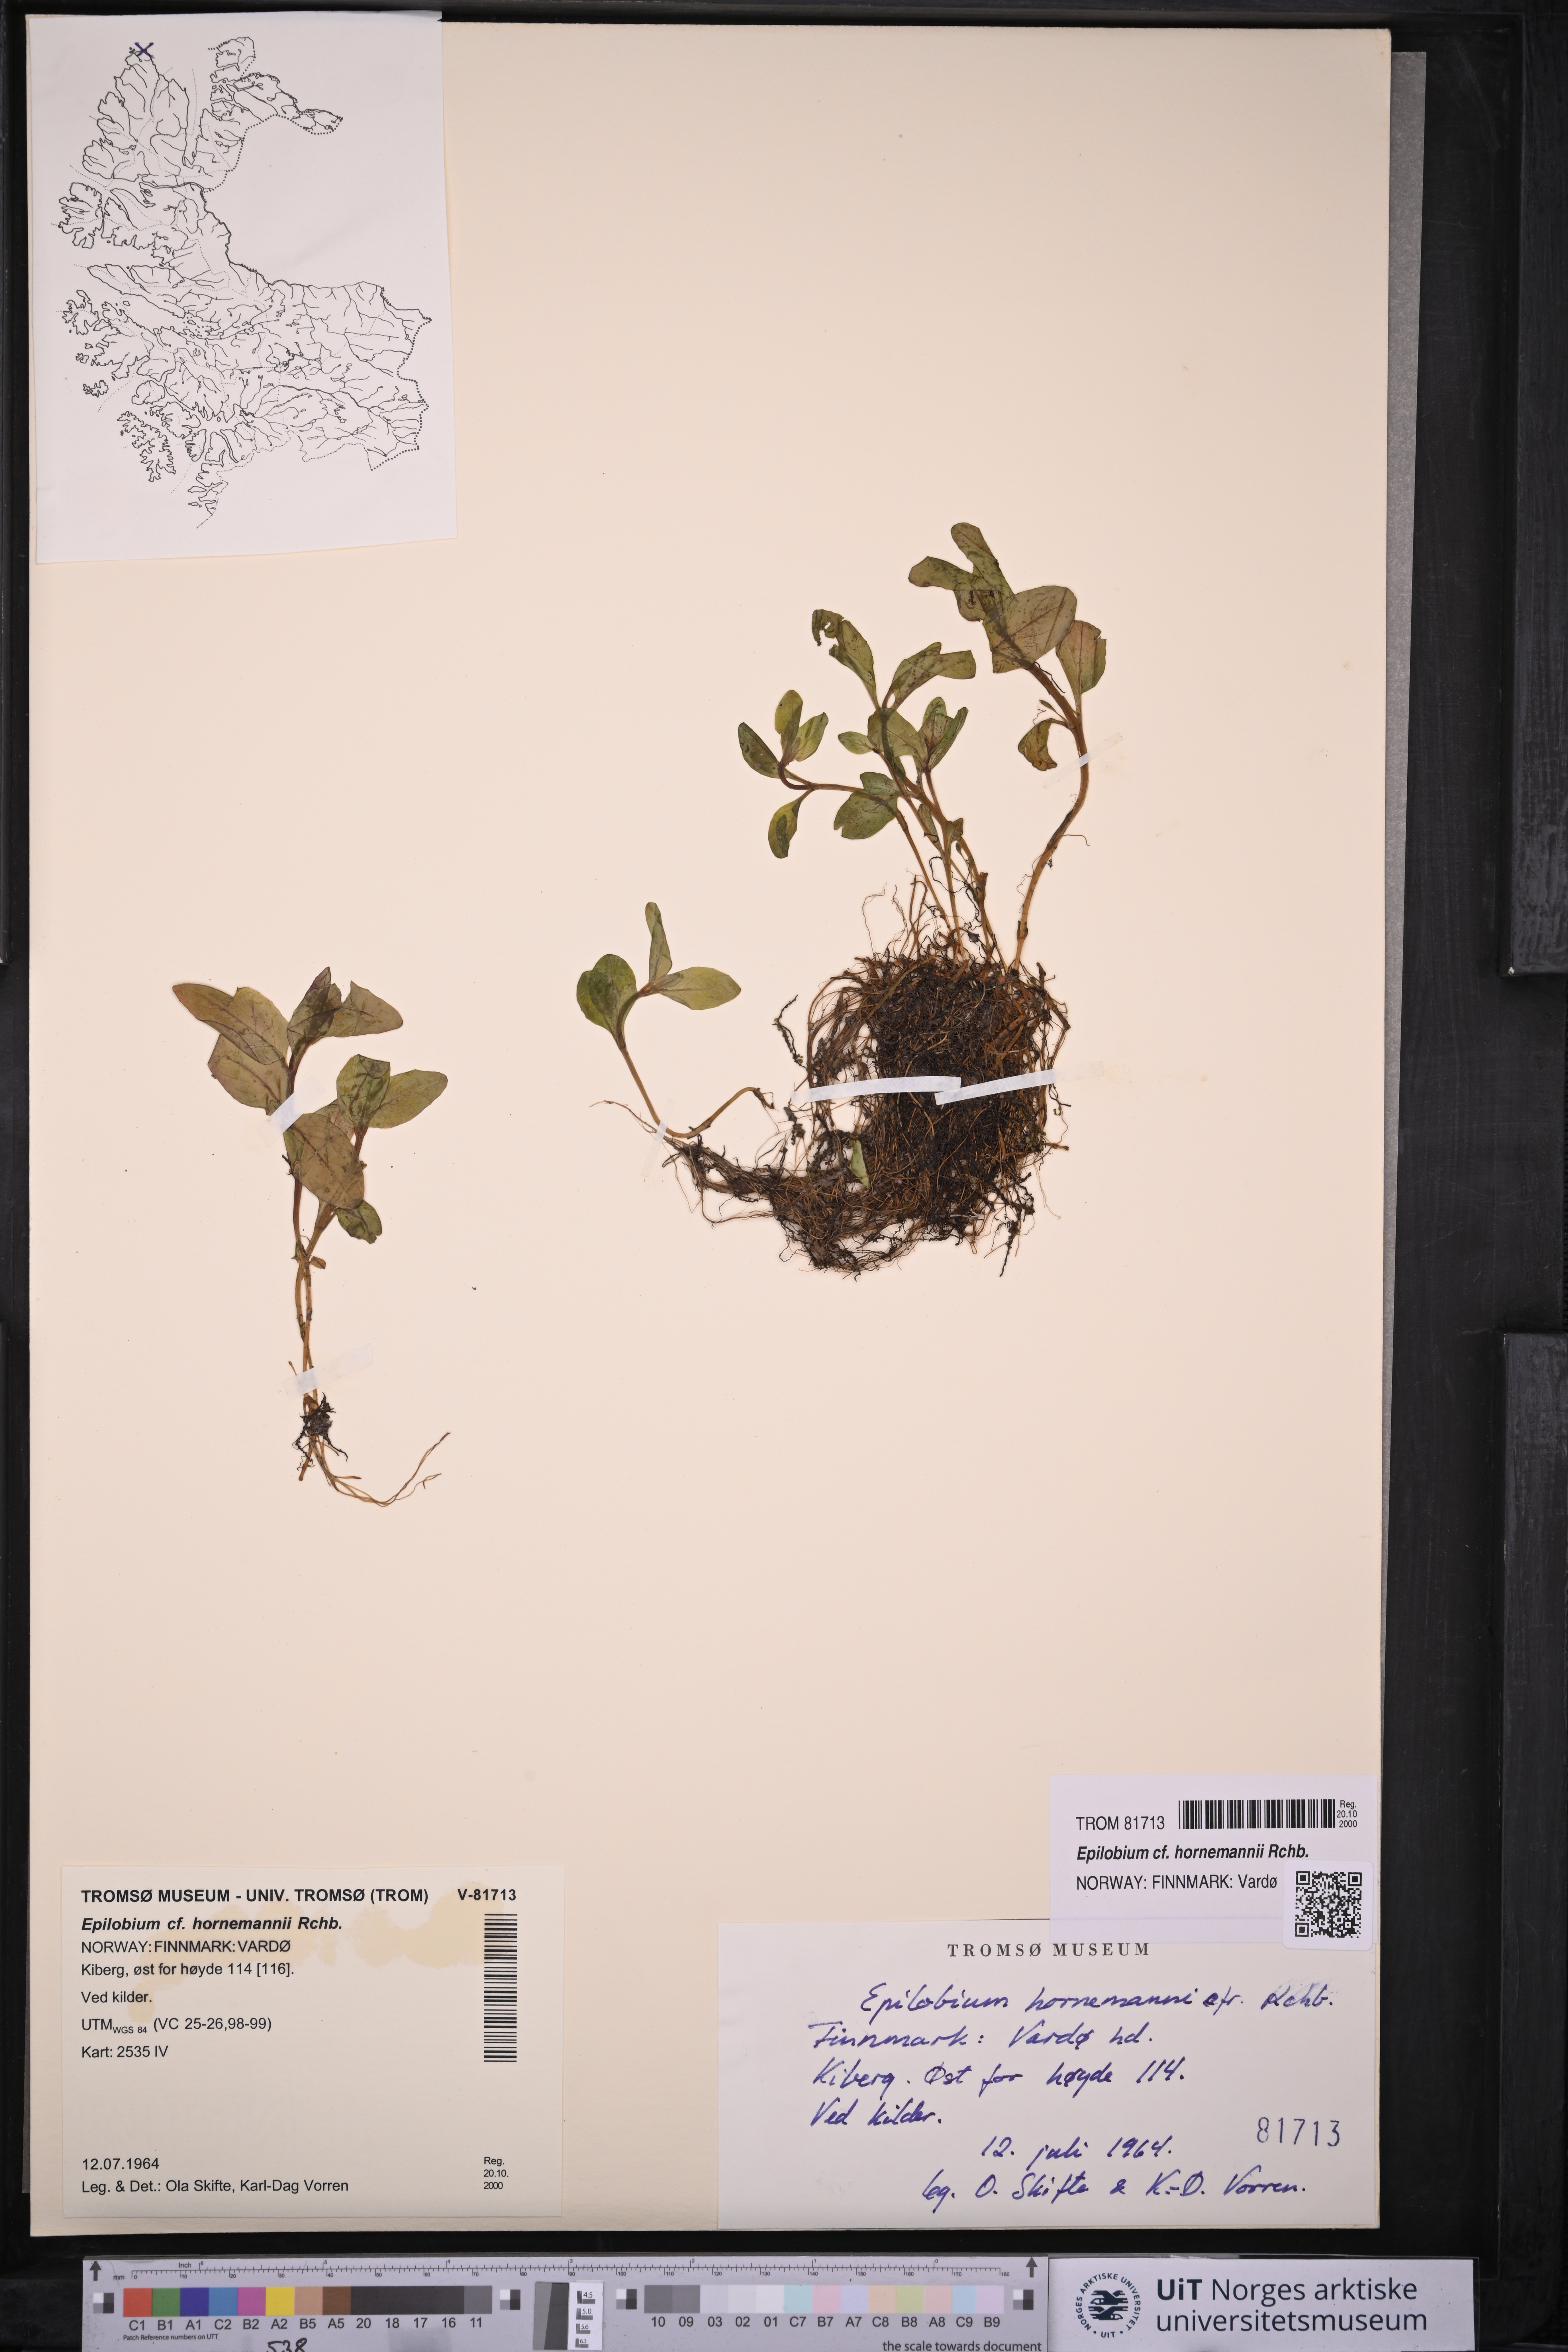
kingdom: Plantae
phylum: Tracheophyta
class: Magnoliopsida
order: Myrtales
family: Onagraceae
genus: Epilobium
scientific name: Epilobium hornemannii
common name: Hornemann's willowherb
